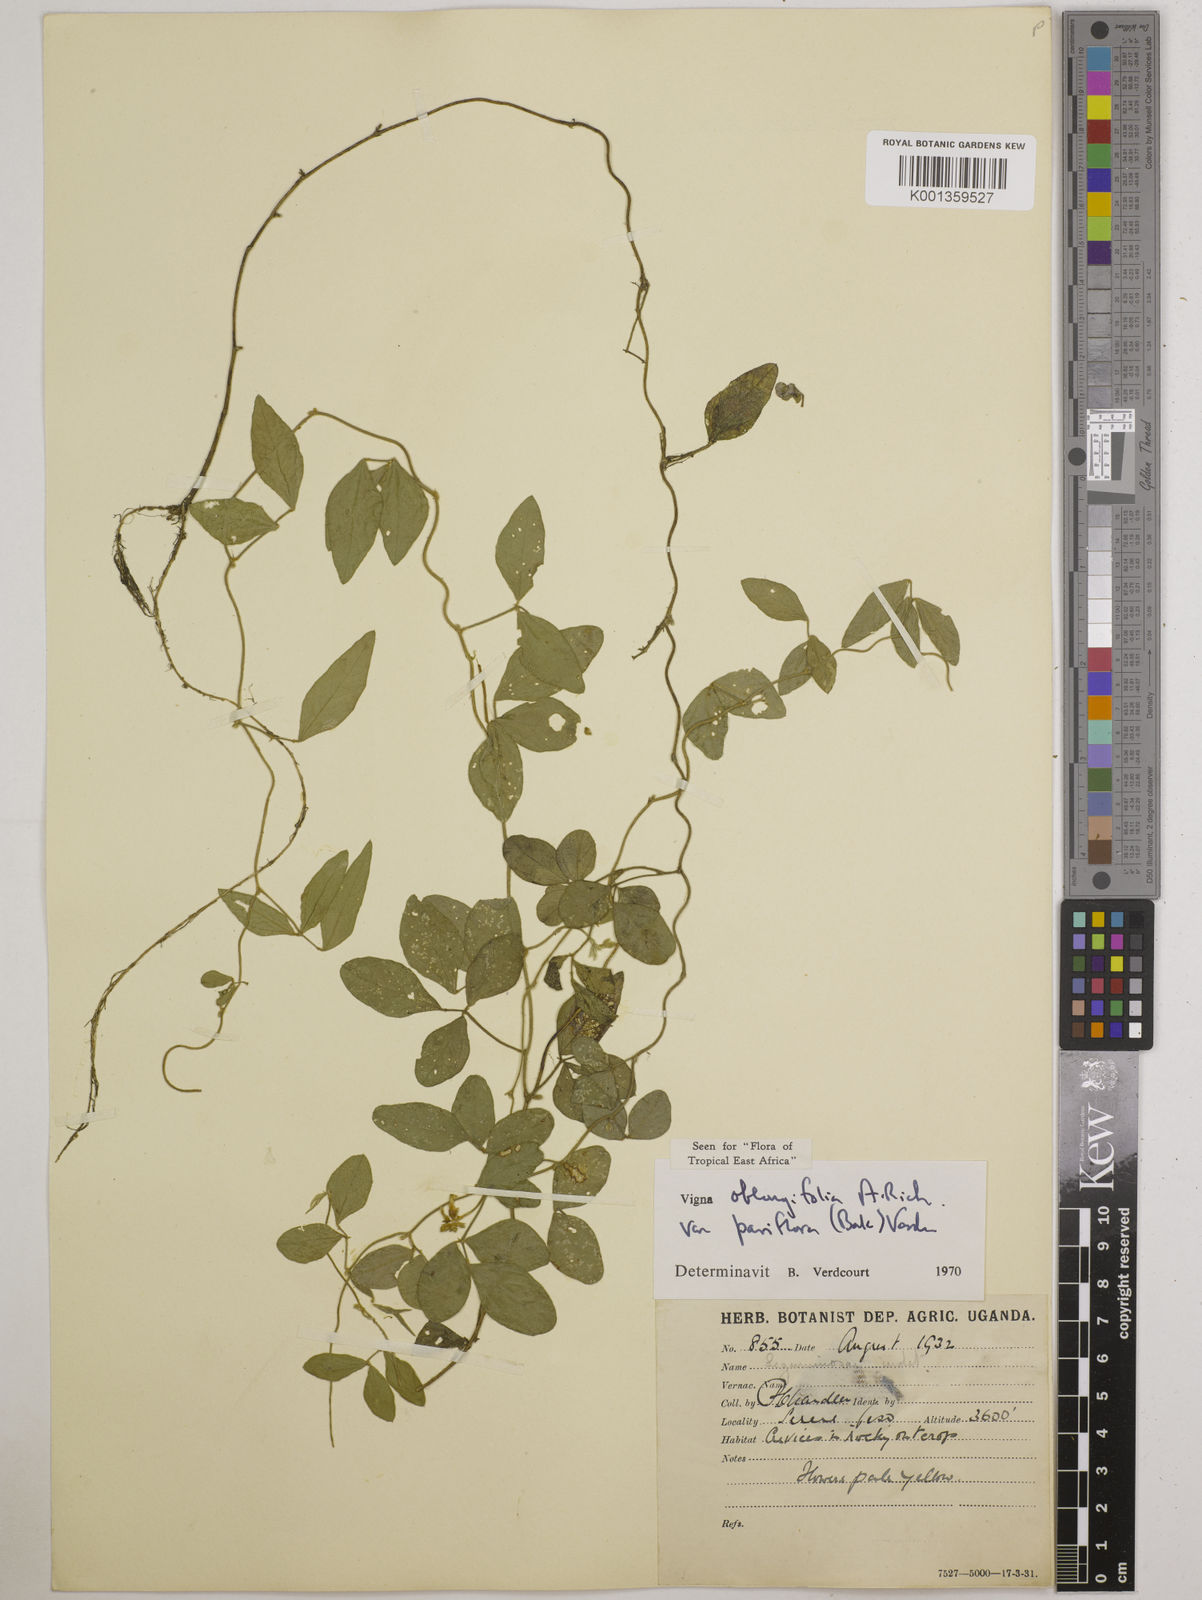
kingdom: Plantae
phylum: Tracheophyta
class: Magnoliopsida
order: Fabales
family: Fabaceae
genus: Vigna
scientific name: Vigna
